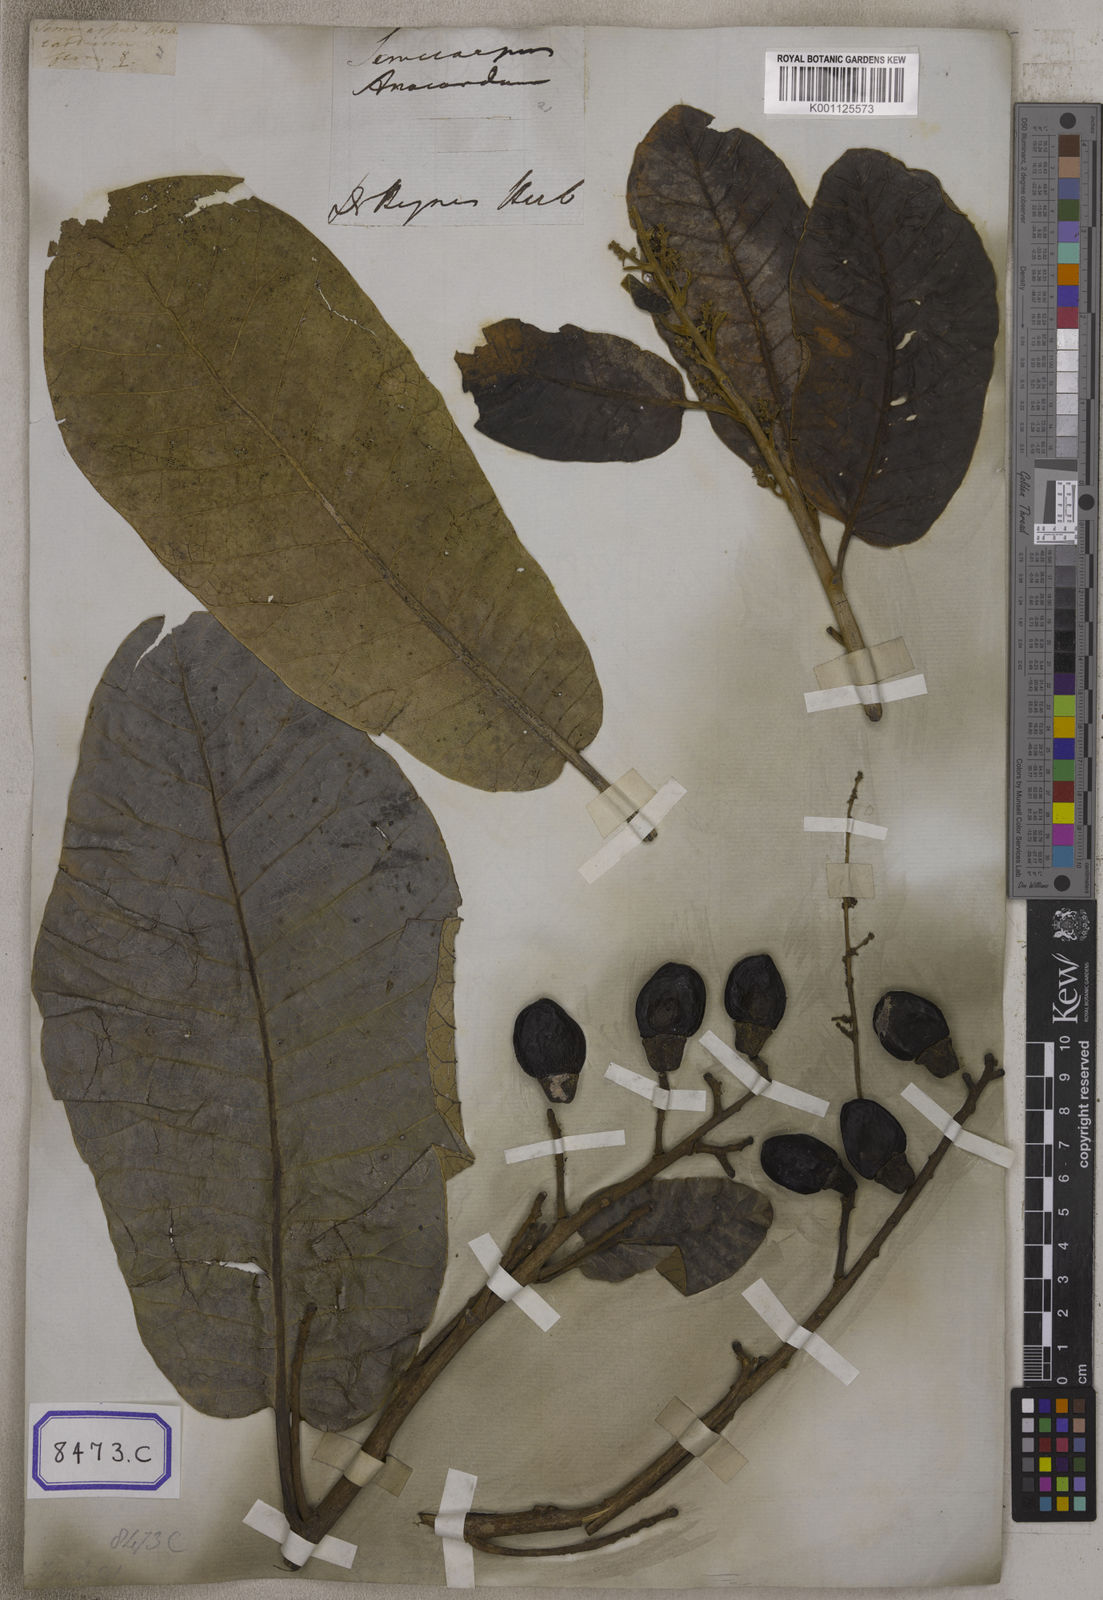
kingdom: Plantae
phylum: Tracheophyta
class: Magnoliopsida
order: Sapindales
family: Anacardiaceae
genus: Semecarpus
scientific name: Semecarpus anacardium
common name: Marking nut-tree
